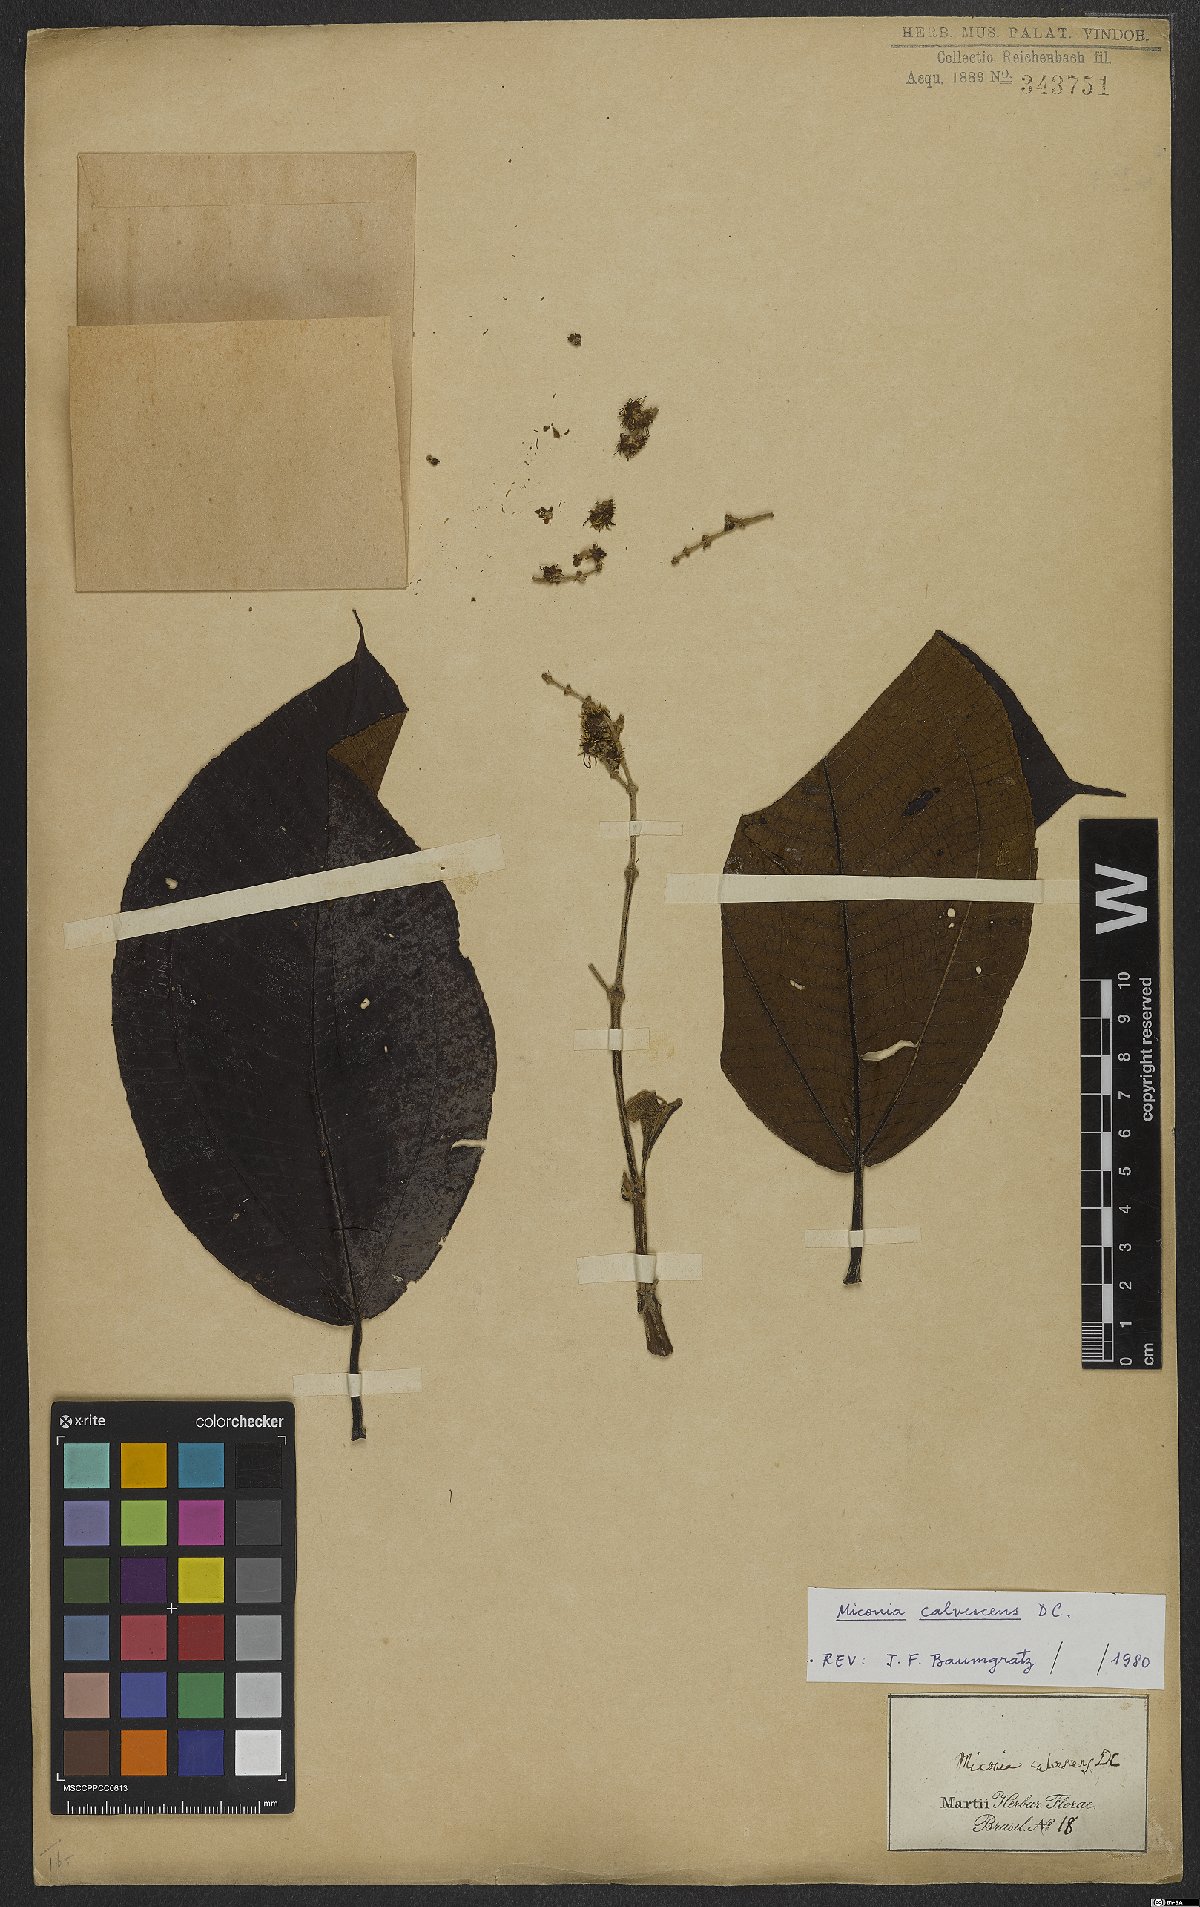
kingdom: Plantae
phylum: Tracheophyta
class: Magnoliopsida
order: Myrtales
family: Melastomataceae
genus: Miconia
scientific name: Miconia calvescens
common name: Purple plague
